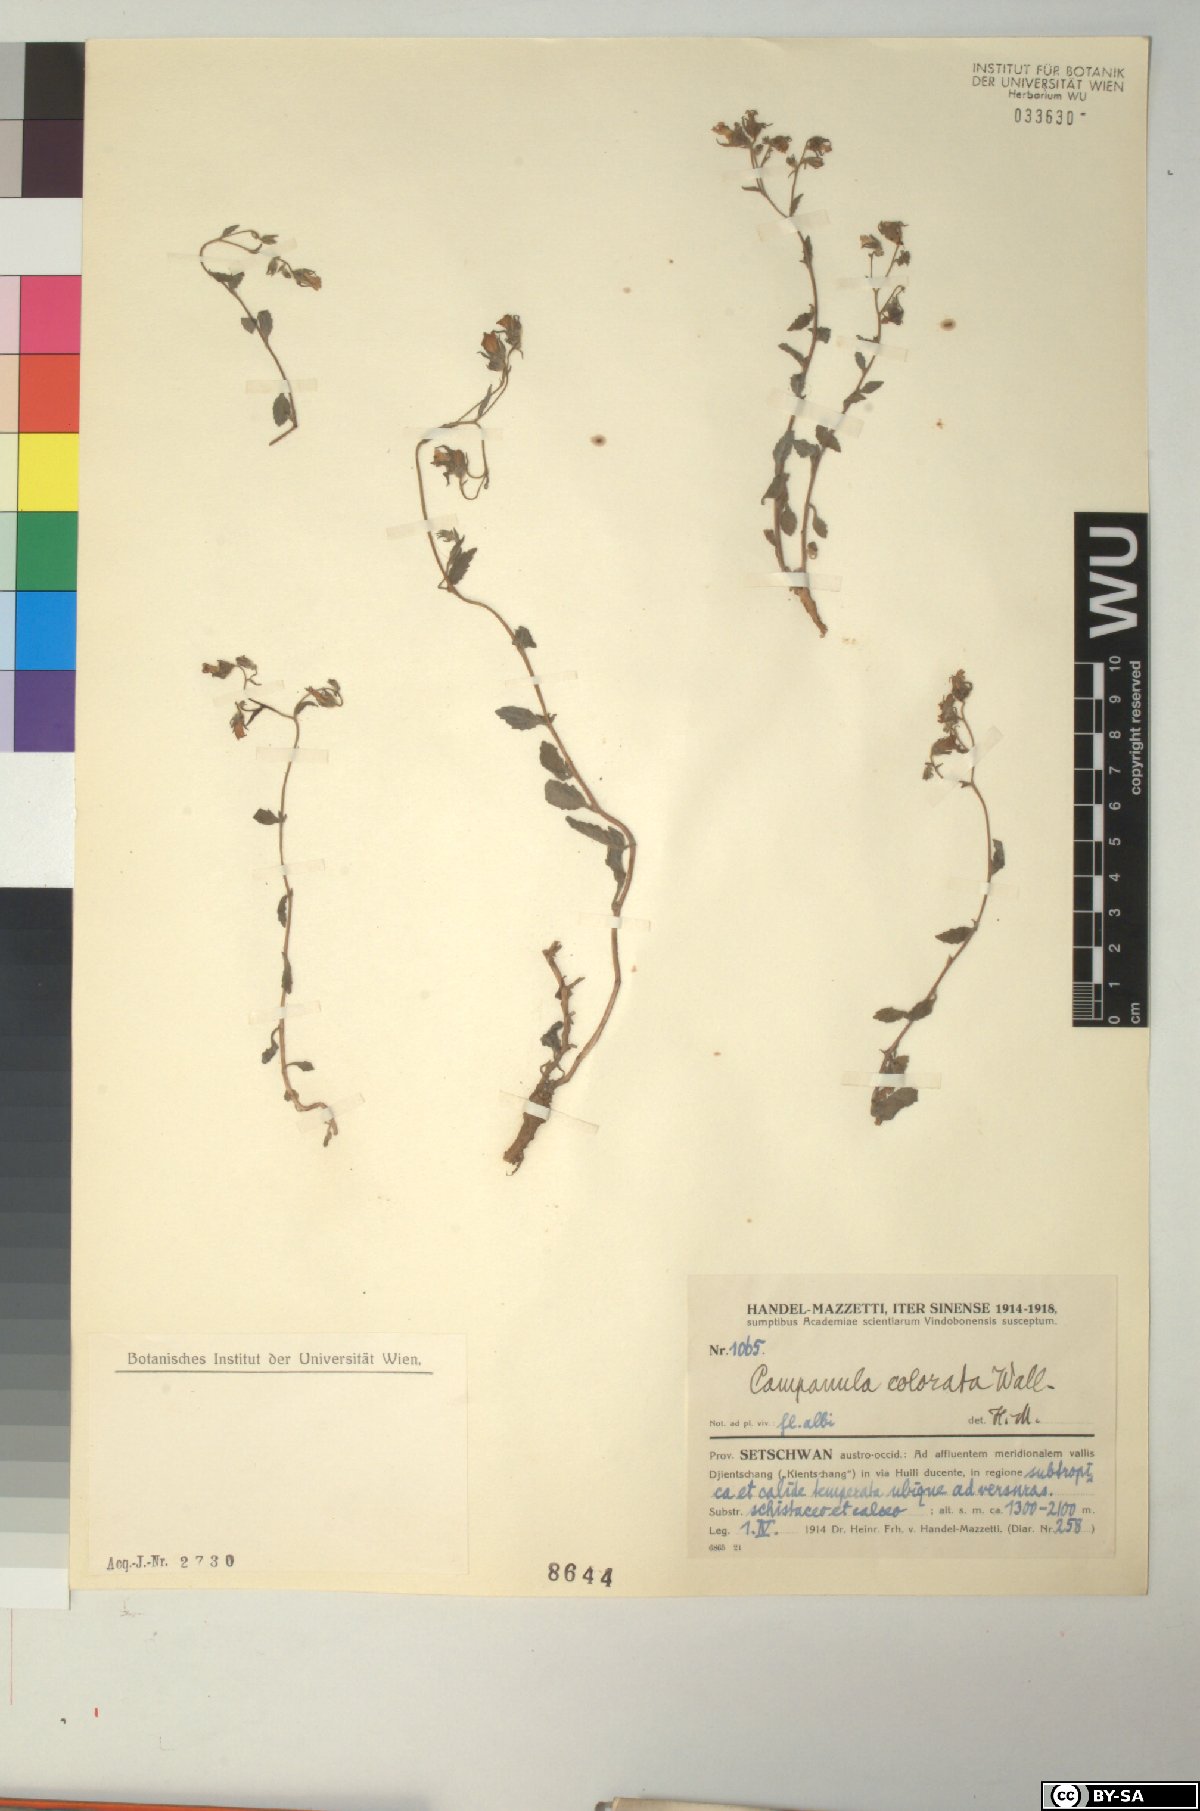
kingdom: Plantae
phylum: Tracheophyta
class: Magnoliopsida
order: Asterales
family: Campanulaceae
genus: Campanula
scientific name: Campanula pallida
